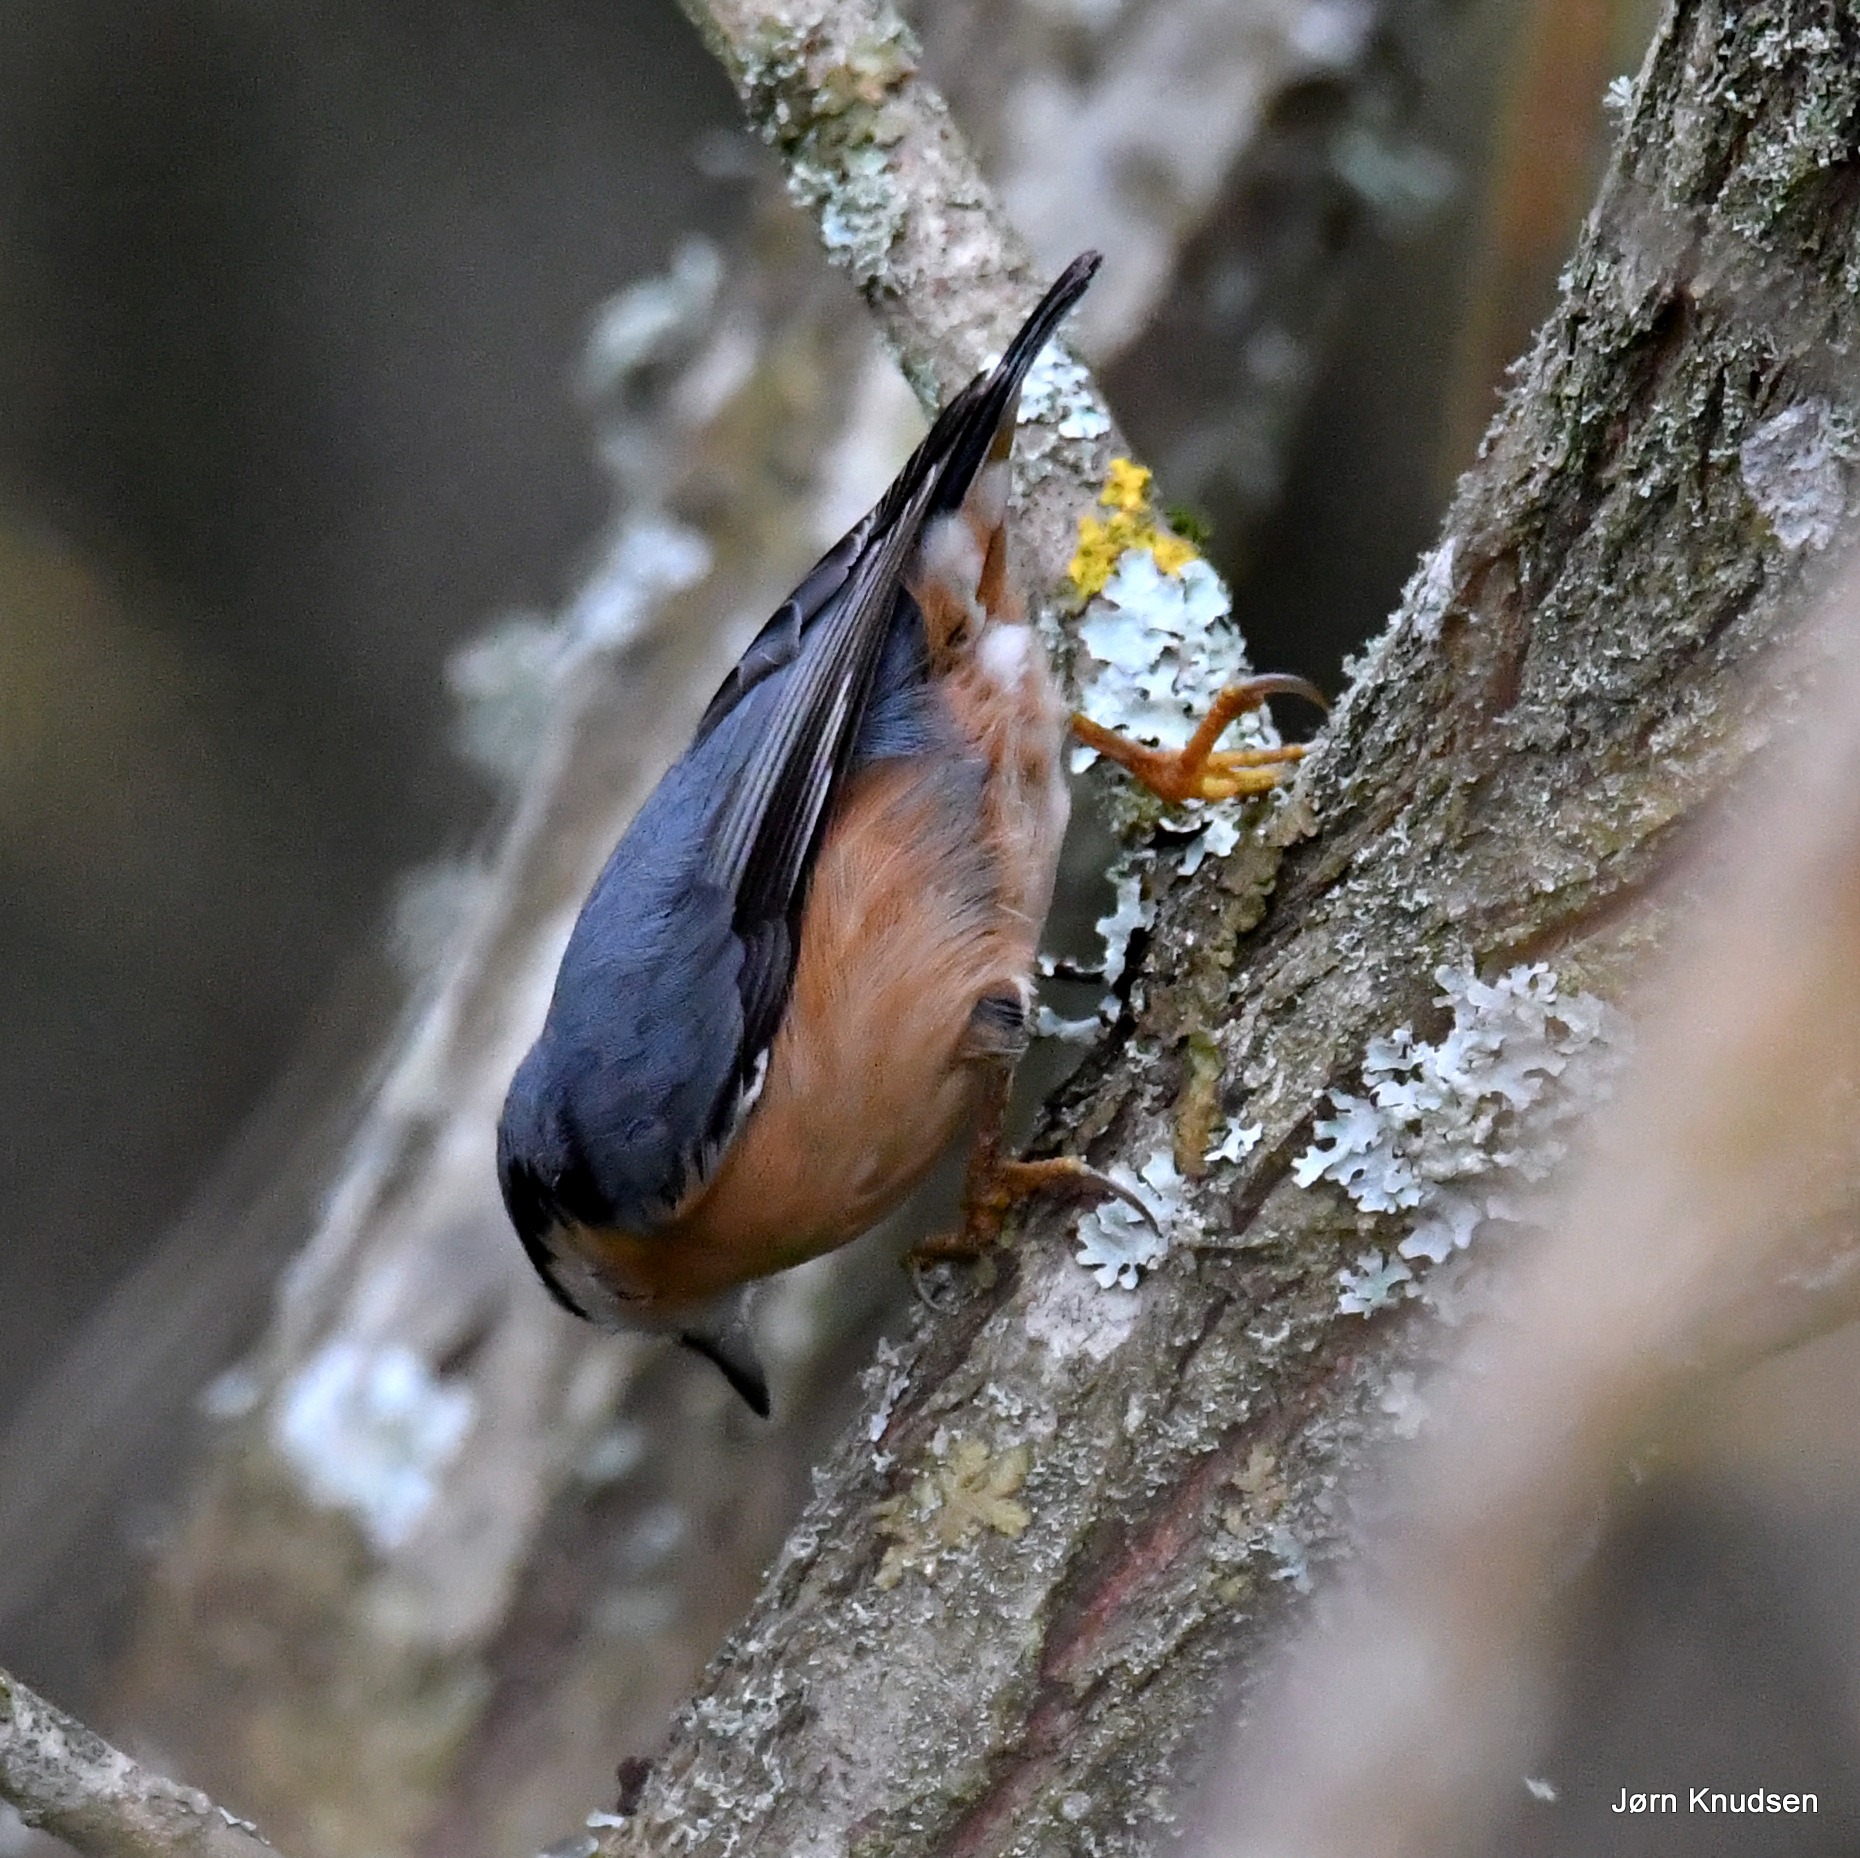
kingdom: Animalia
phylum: Chordata
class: Aves
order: Passeriformes
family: Sittidae
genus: Sitta
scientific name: Sitta europaea
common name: Spætmejse
